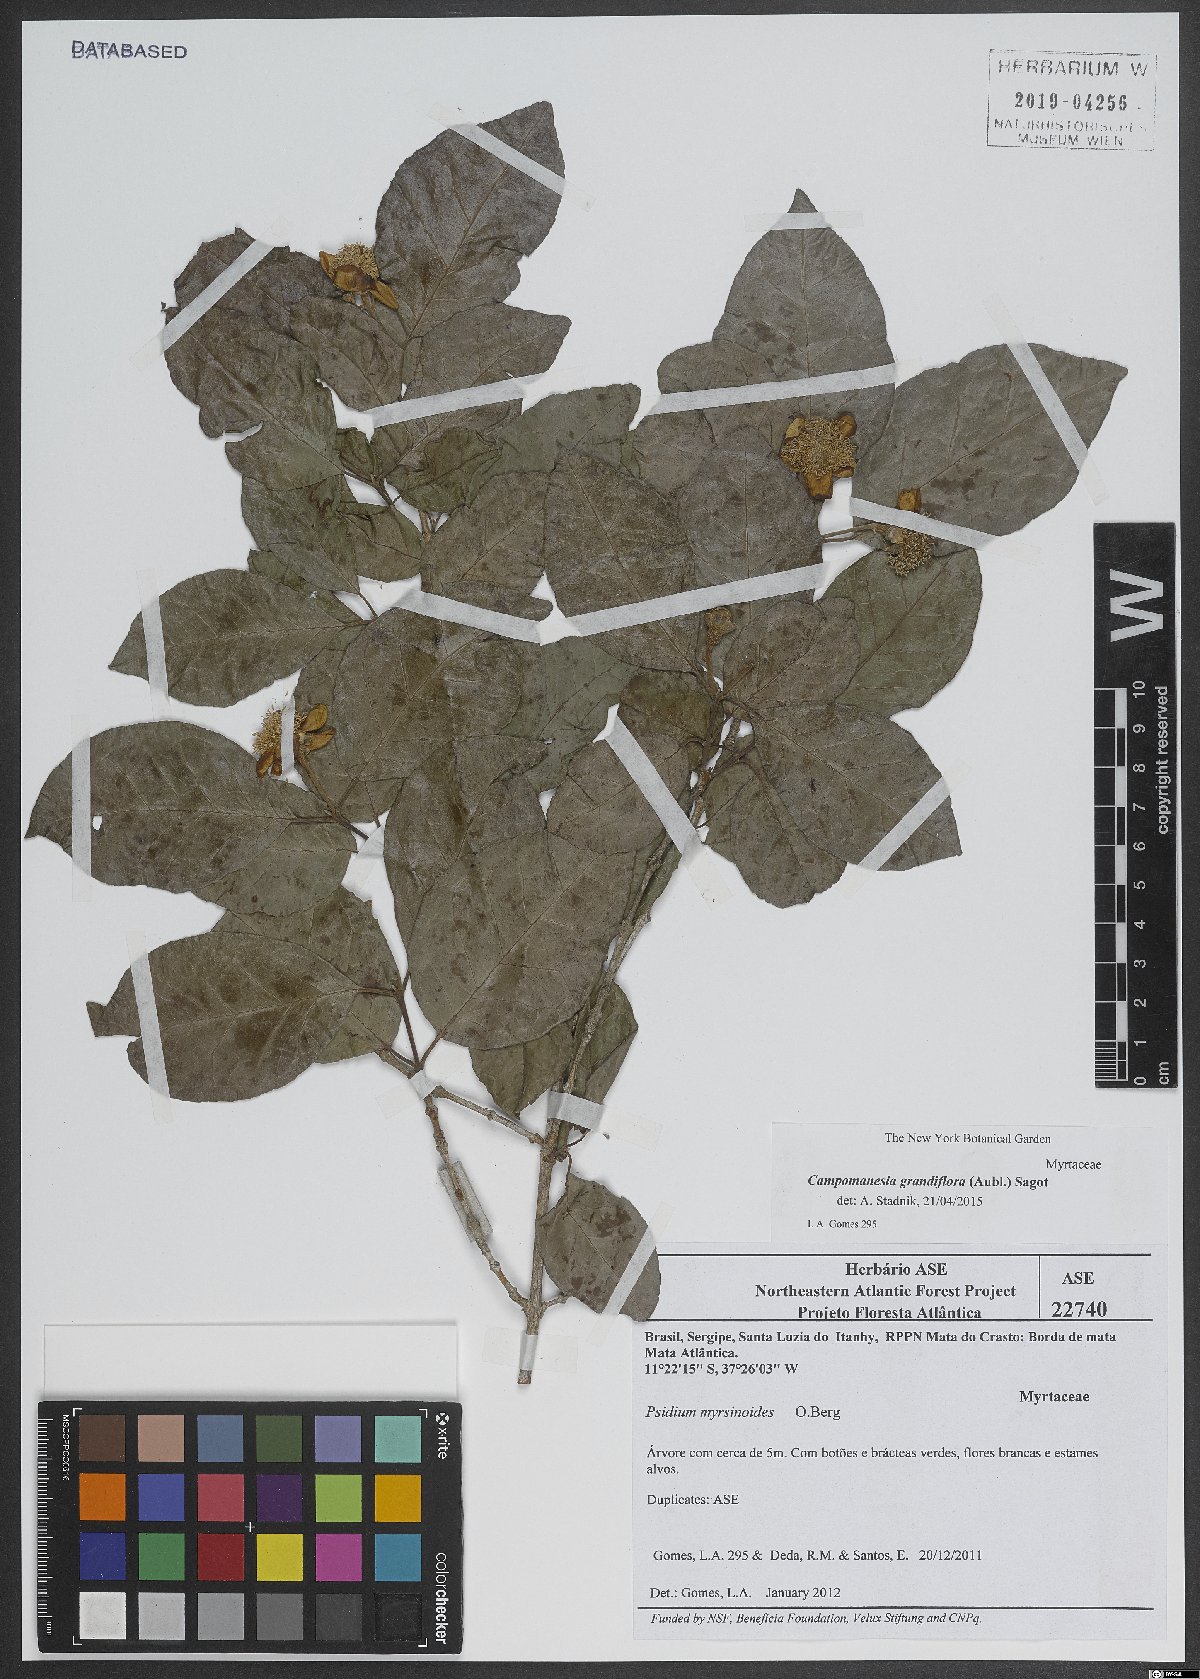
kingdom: Plantae
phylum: Tracheophyta
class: Magnoliopsida
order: Myrtales
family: Myrtaceae
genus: Campomanesia
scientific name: Campomanesia grandiflora
